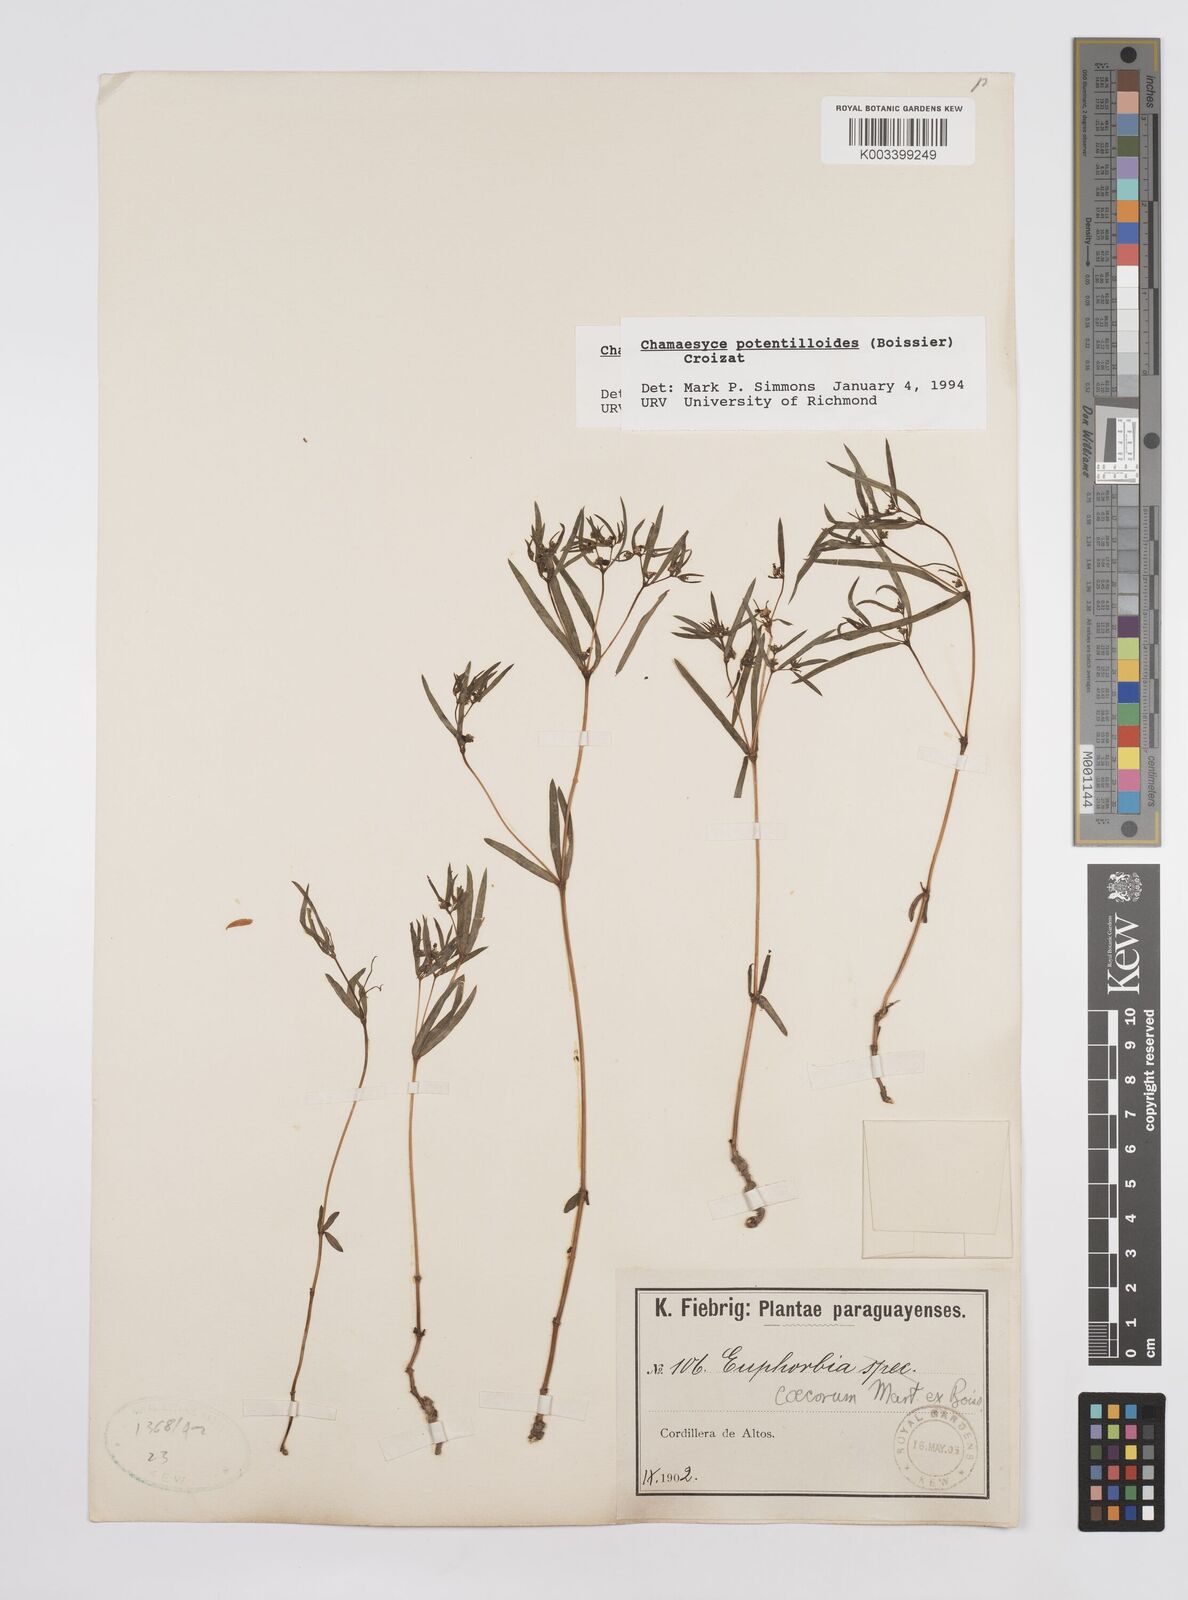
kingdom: Plantae
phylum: Tracheophyta
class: Magnoliopsida
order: Malpighiales
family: Euphorbiaceae
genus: Euphorbia
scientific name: Euphorbia potentilloides
